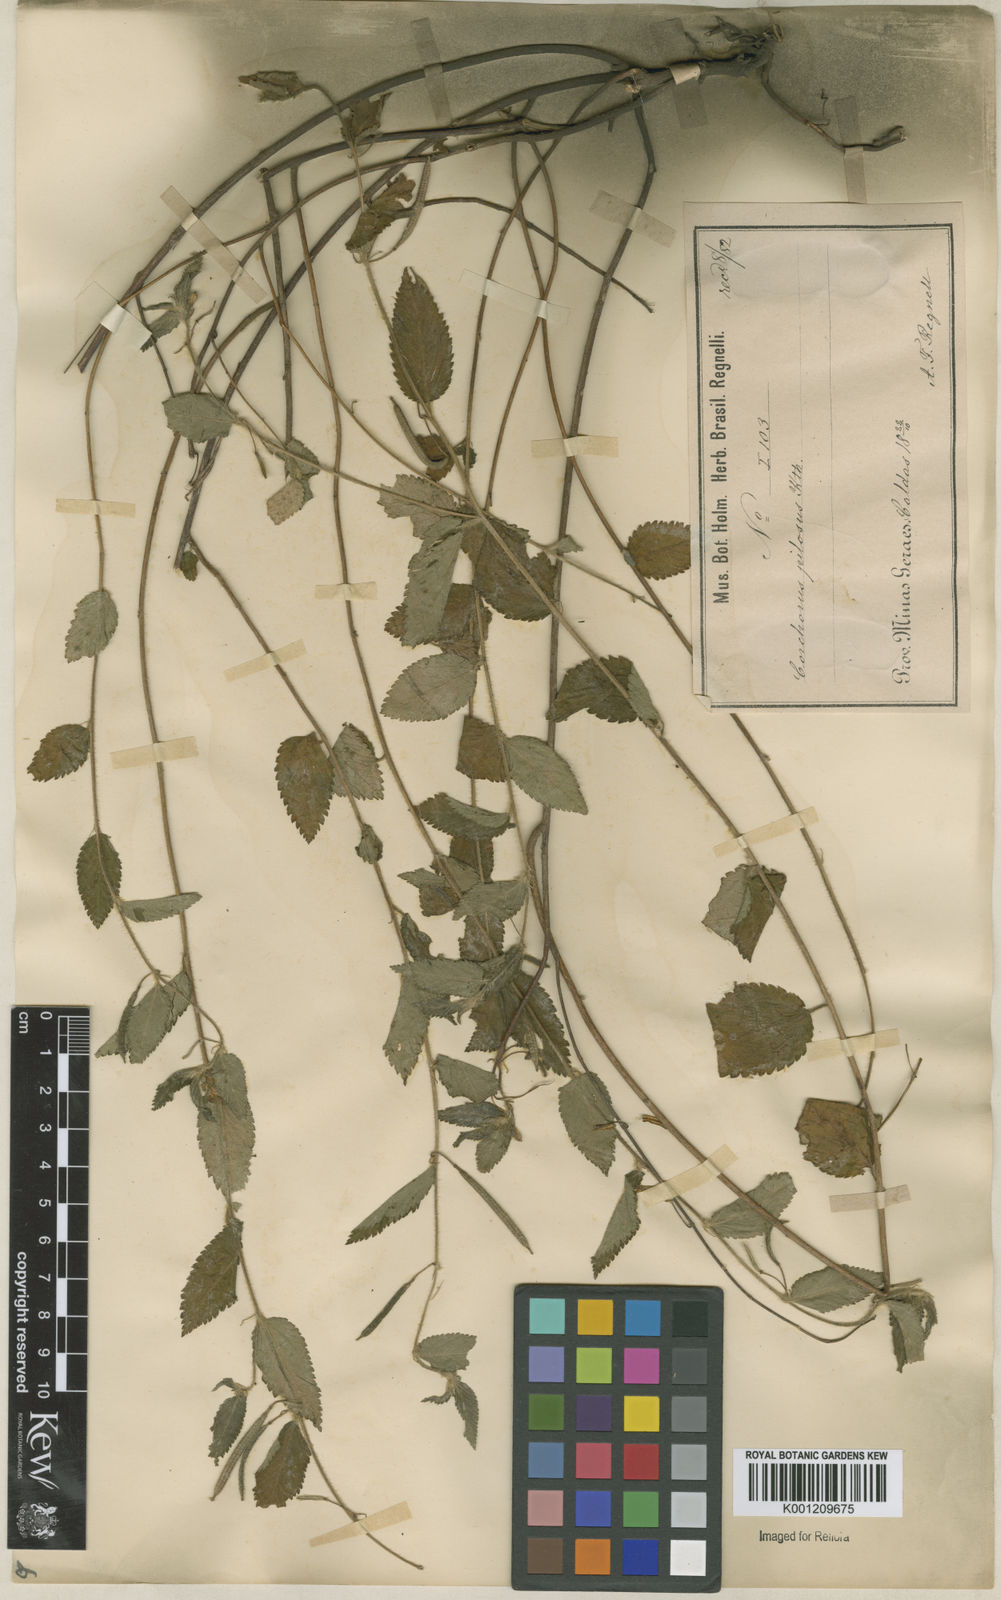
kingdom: Plantae
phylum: Tracheophyta
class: Magnoliopsida
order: Malvales
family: Malvaceae
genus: Corchorus
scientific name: Corchorus hirtus
